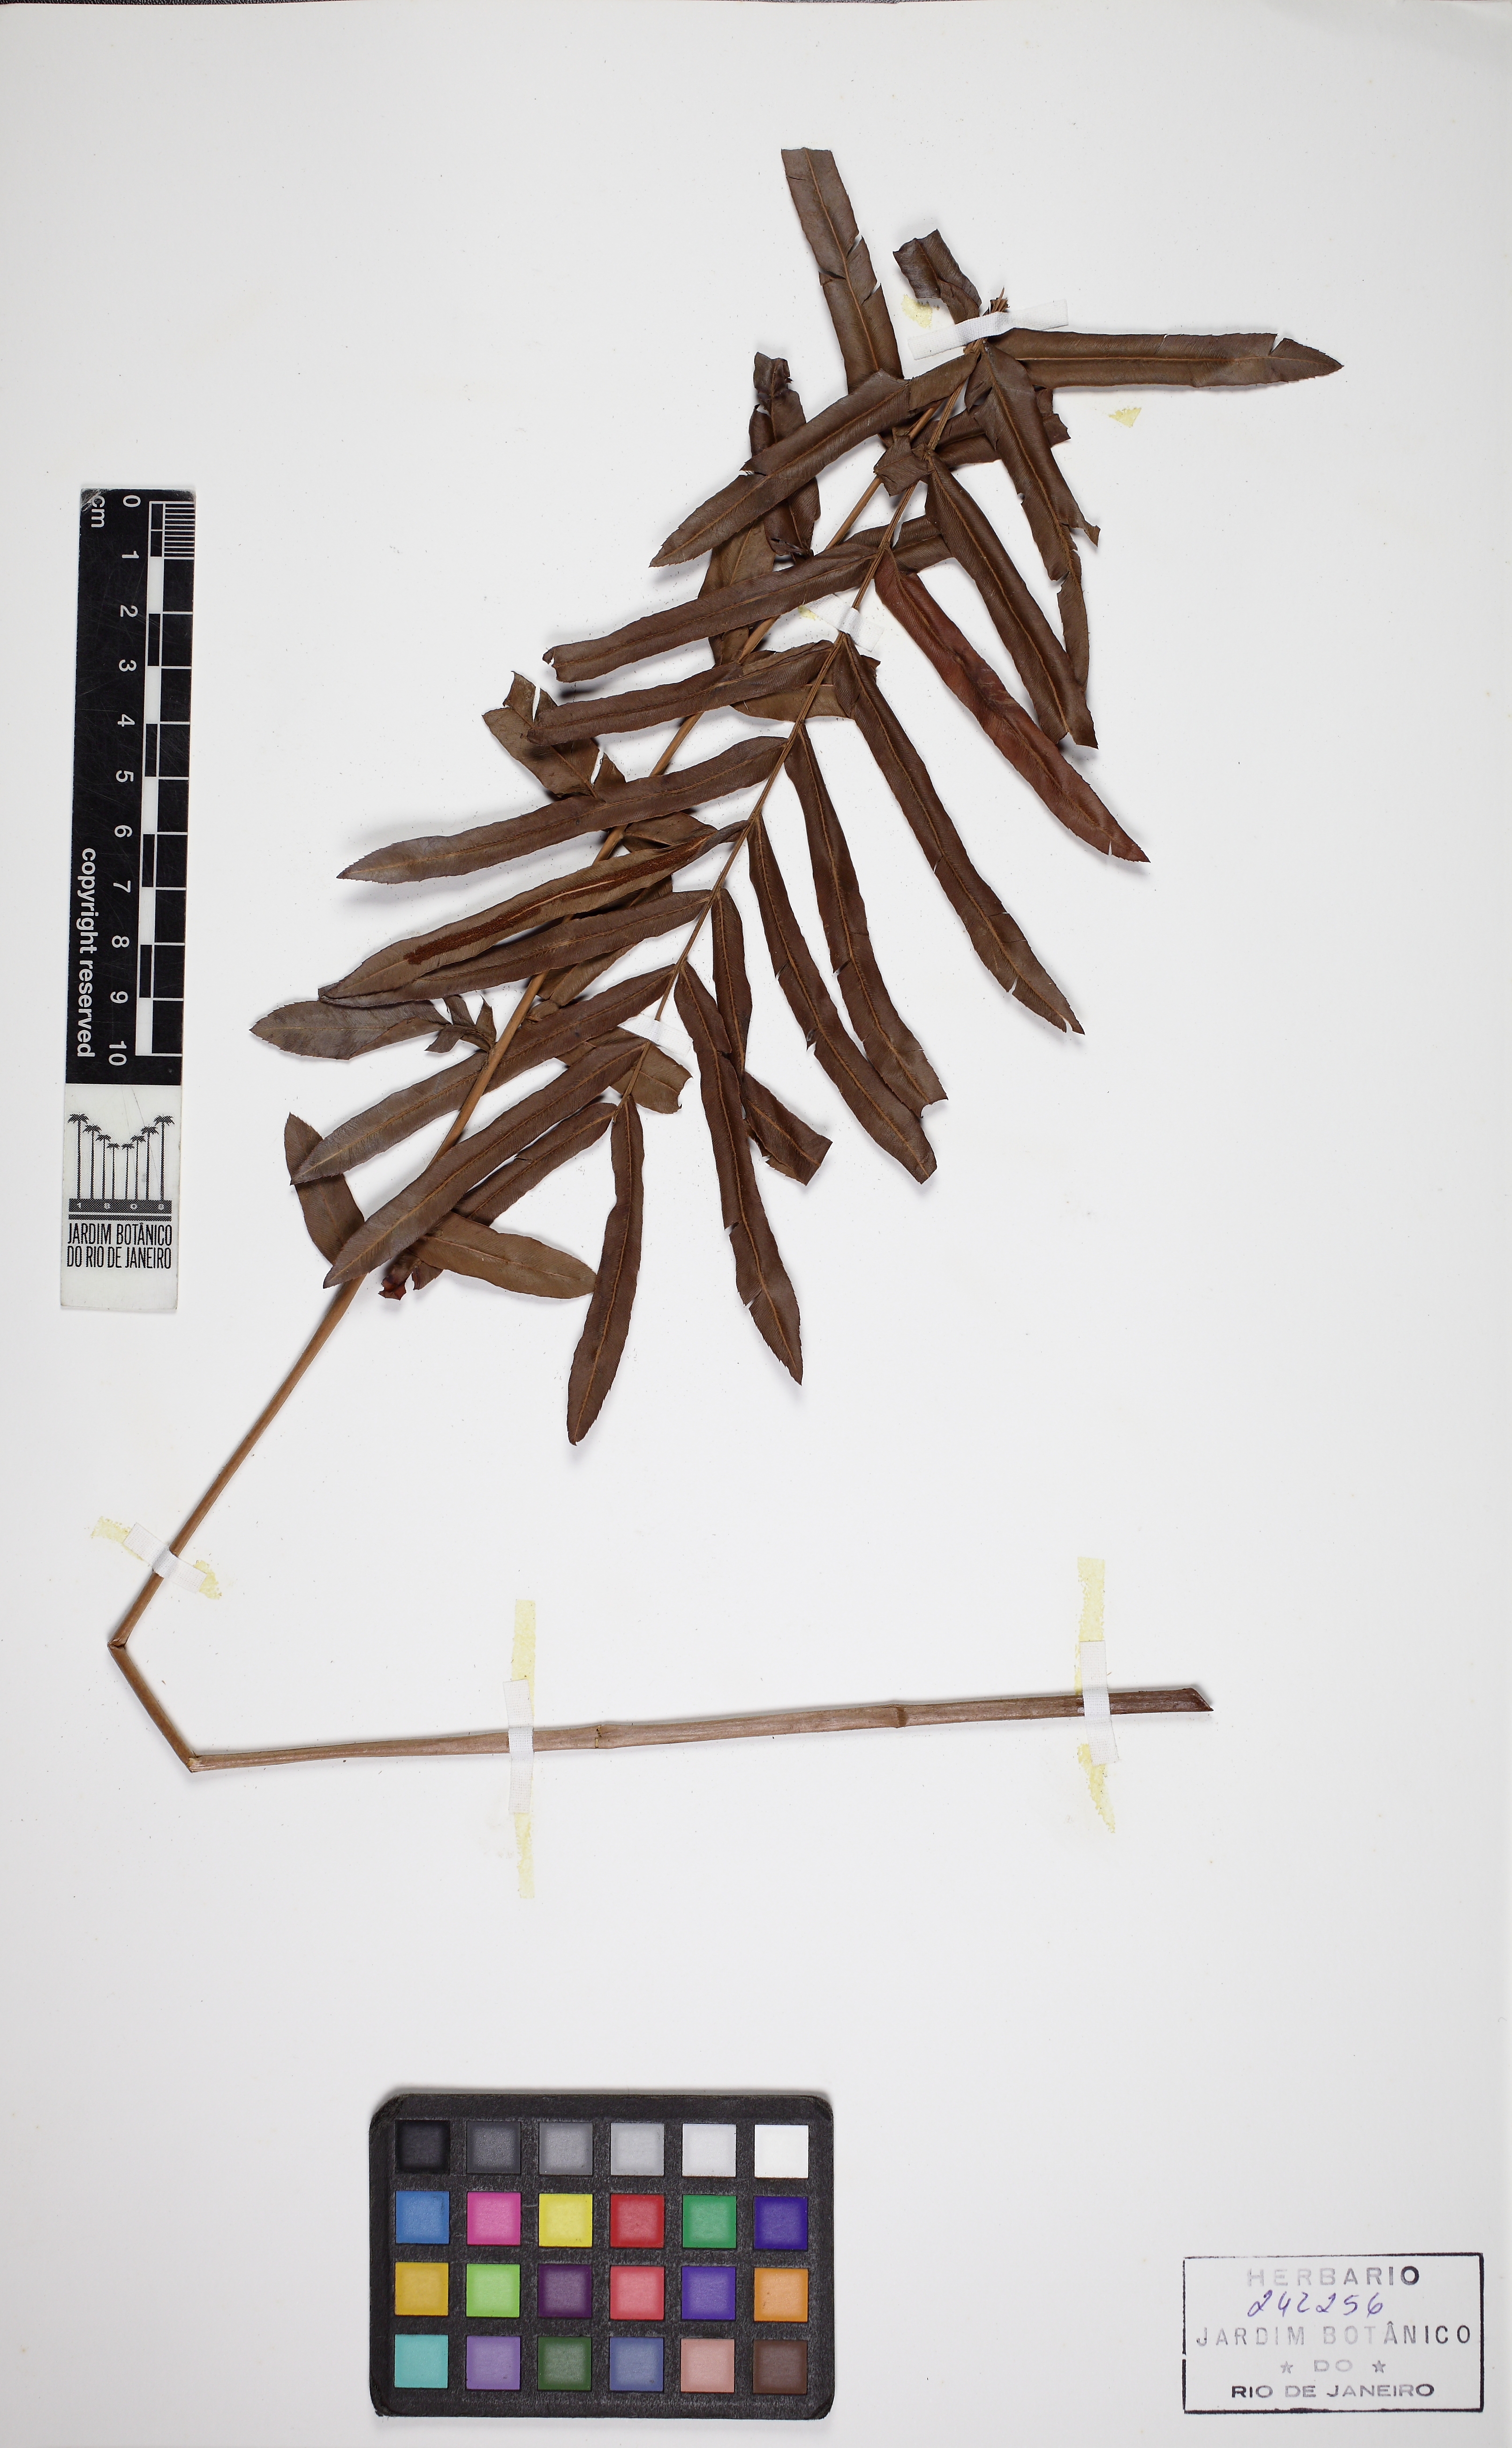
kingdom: Plantae
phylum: Tracheophyta
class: Polypodiopsida
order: Polypodiales
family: Blechnaceae
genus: Telmatoblechnum
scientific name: Telmatoblechnum serrulatum
